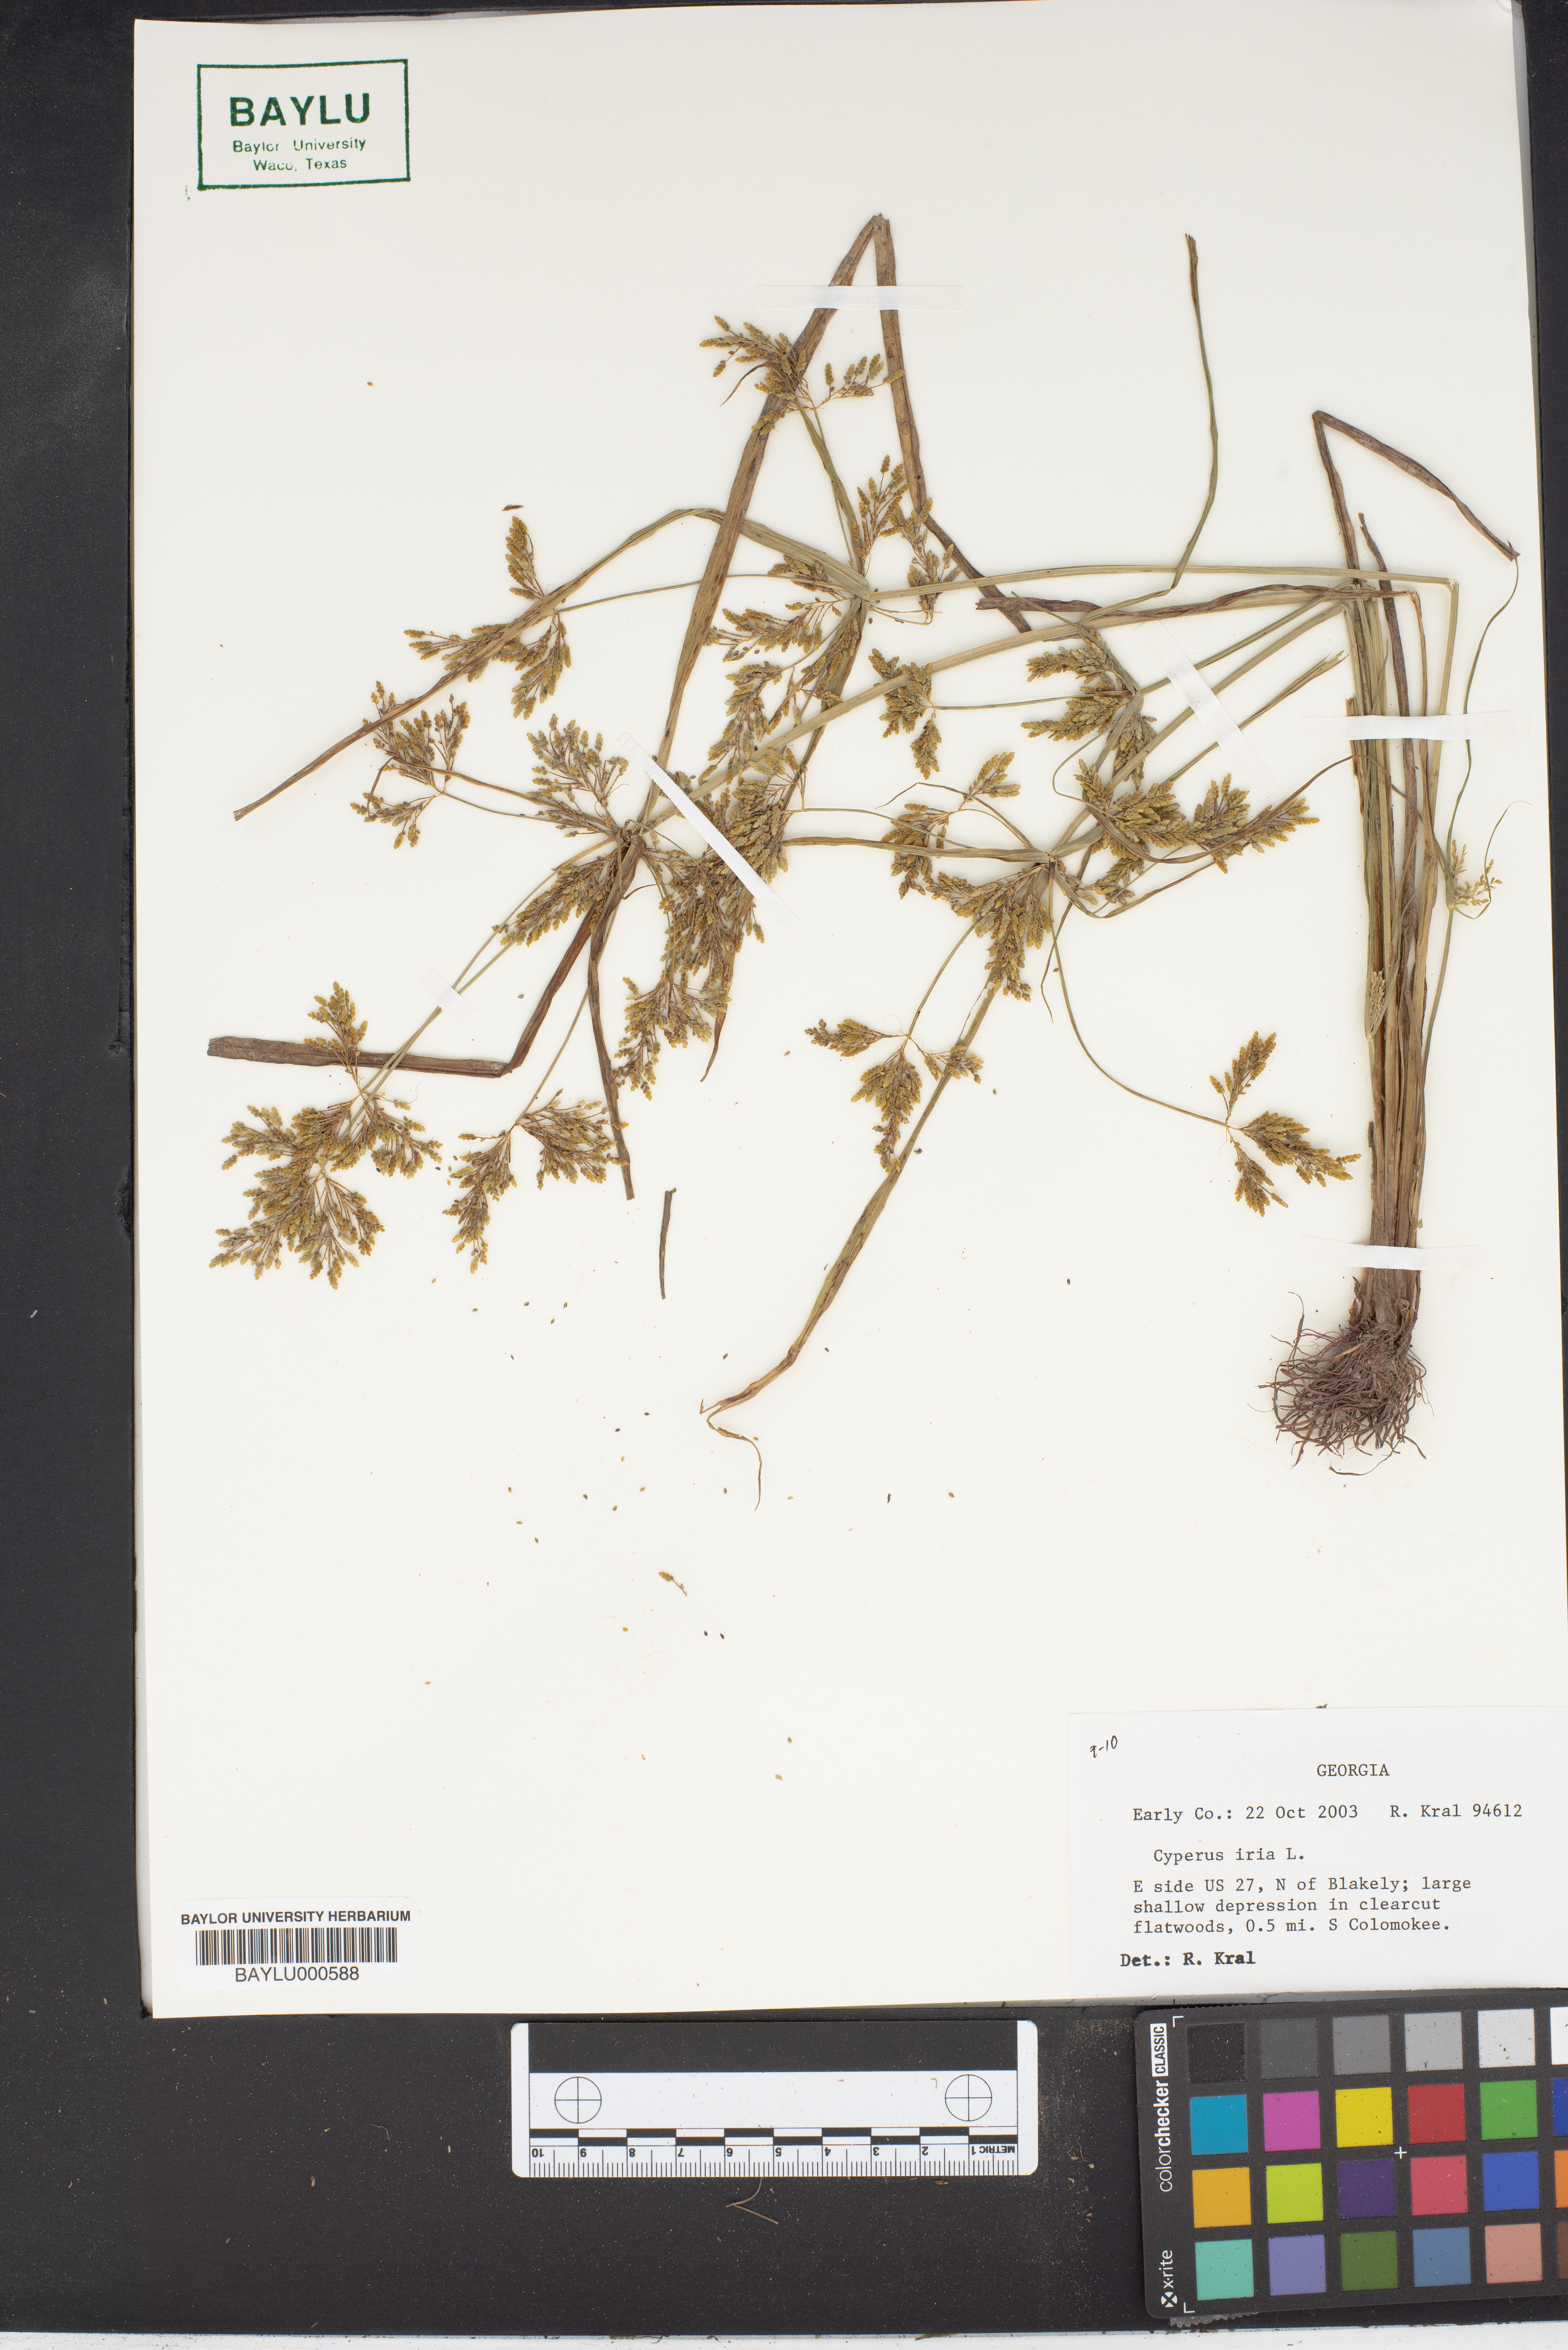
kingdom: Plantae
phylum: Tracheophyta
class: Liliopsida
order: Poales
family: Cyperaceae
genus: Cyperus
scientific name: Cyperus iria
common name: Ricefield flatsedge
